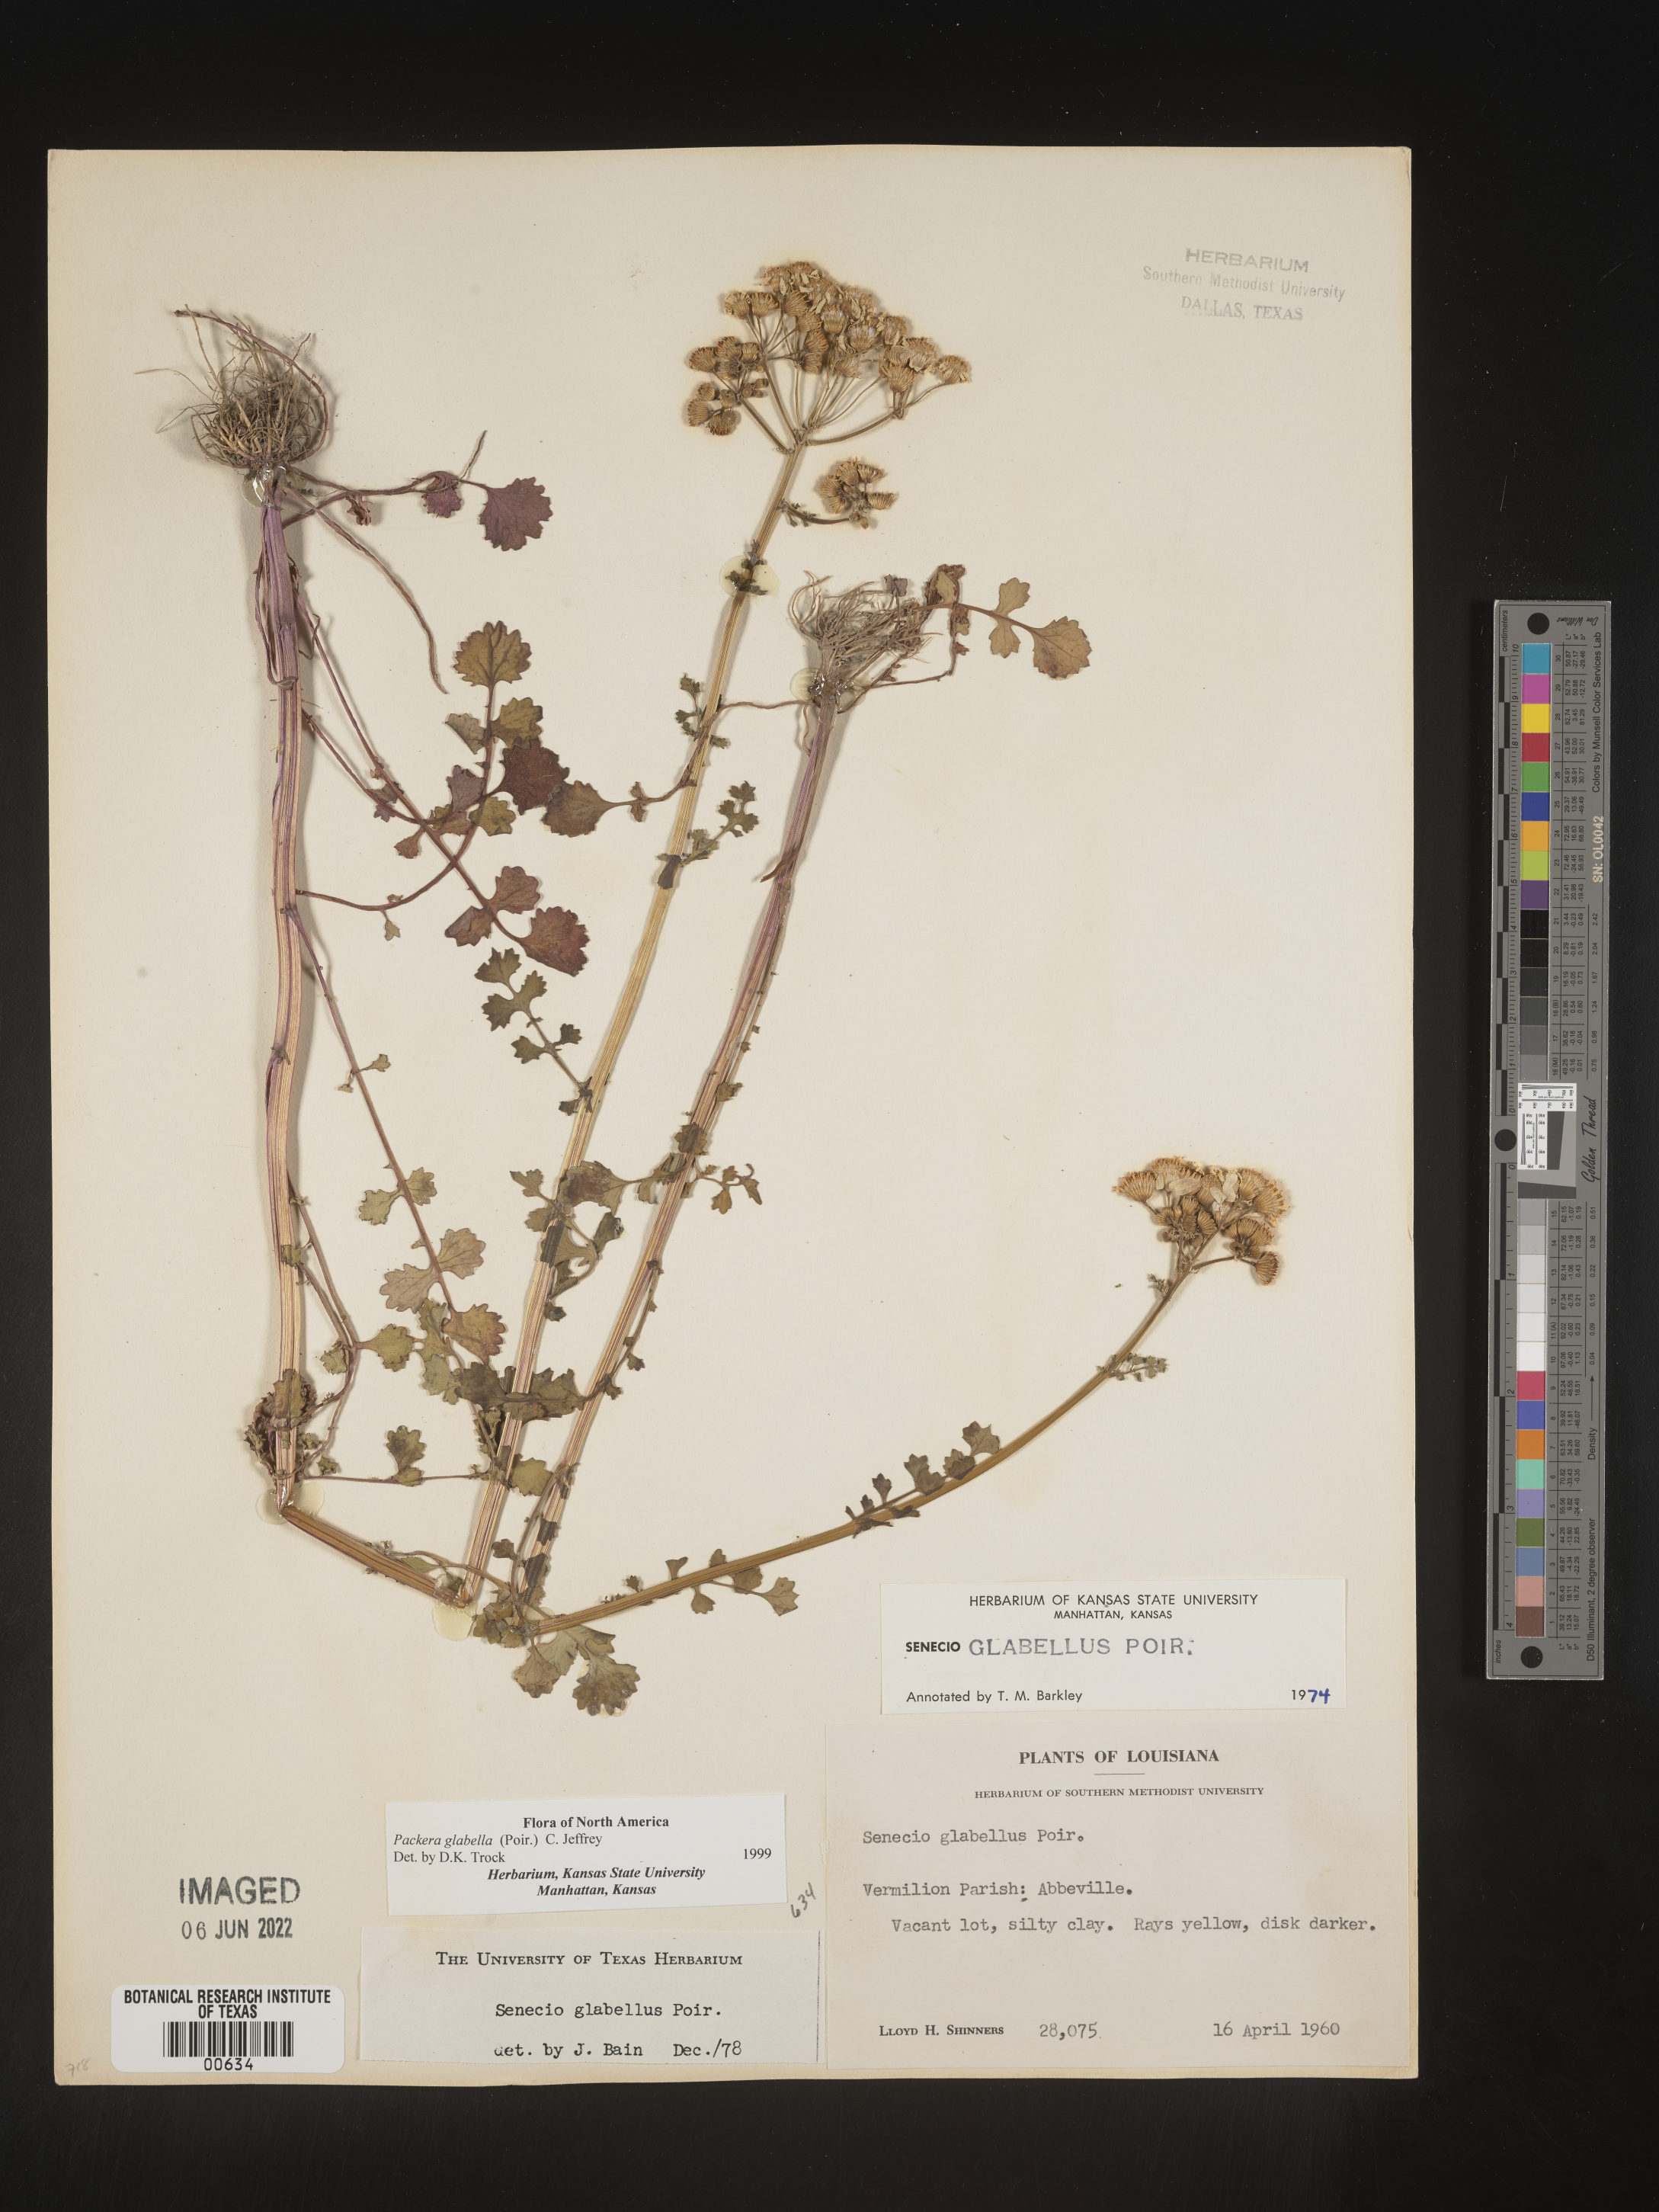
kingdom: Plantae
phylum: Tracheophyta
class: Magnoliopsida
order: Asterales
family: Asteraceae
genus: Packera
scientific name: Packera glabella
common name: Butterweed
